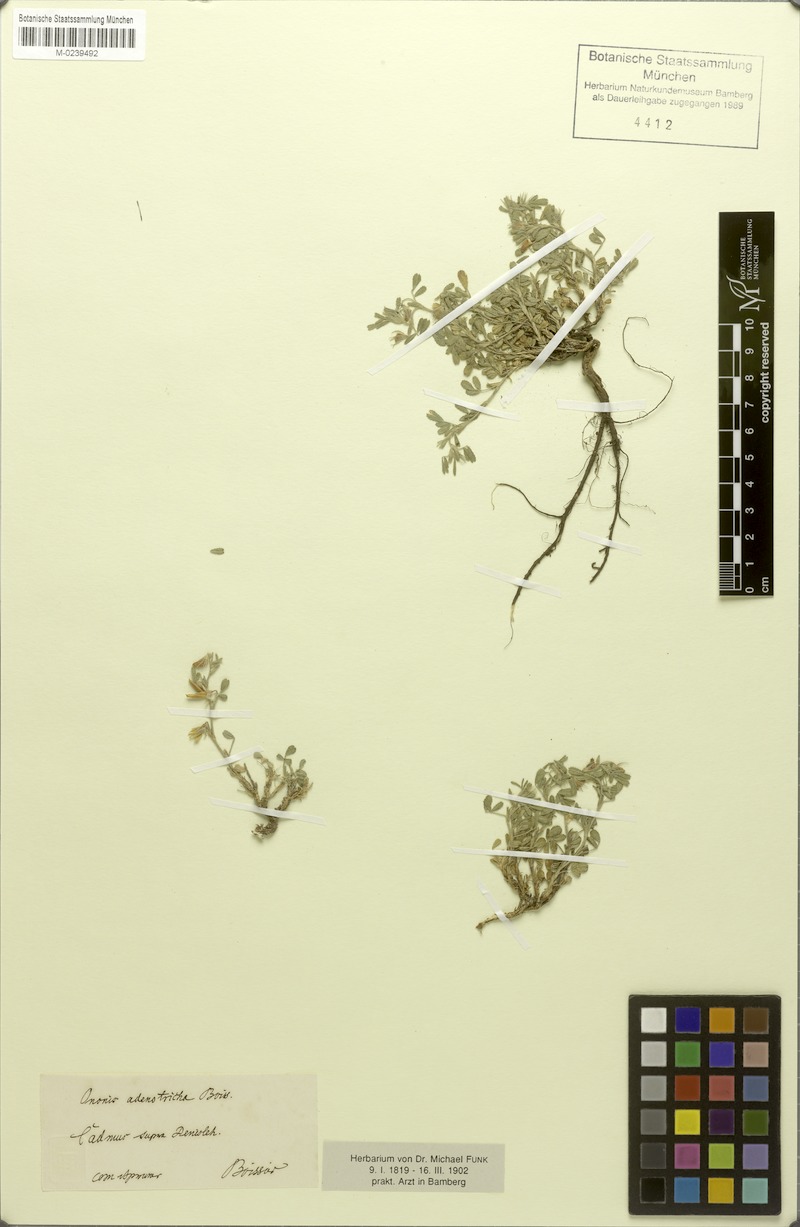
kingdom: Plantae
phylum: Tracheophyta
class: Magnoliopsida
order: Fabales
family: Fabaceae
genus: Ononis
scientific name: Ononis adenotricha
